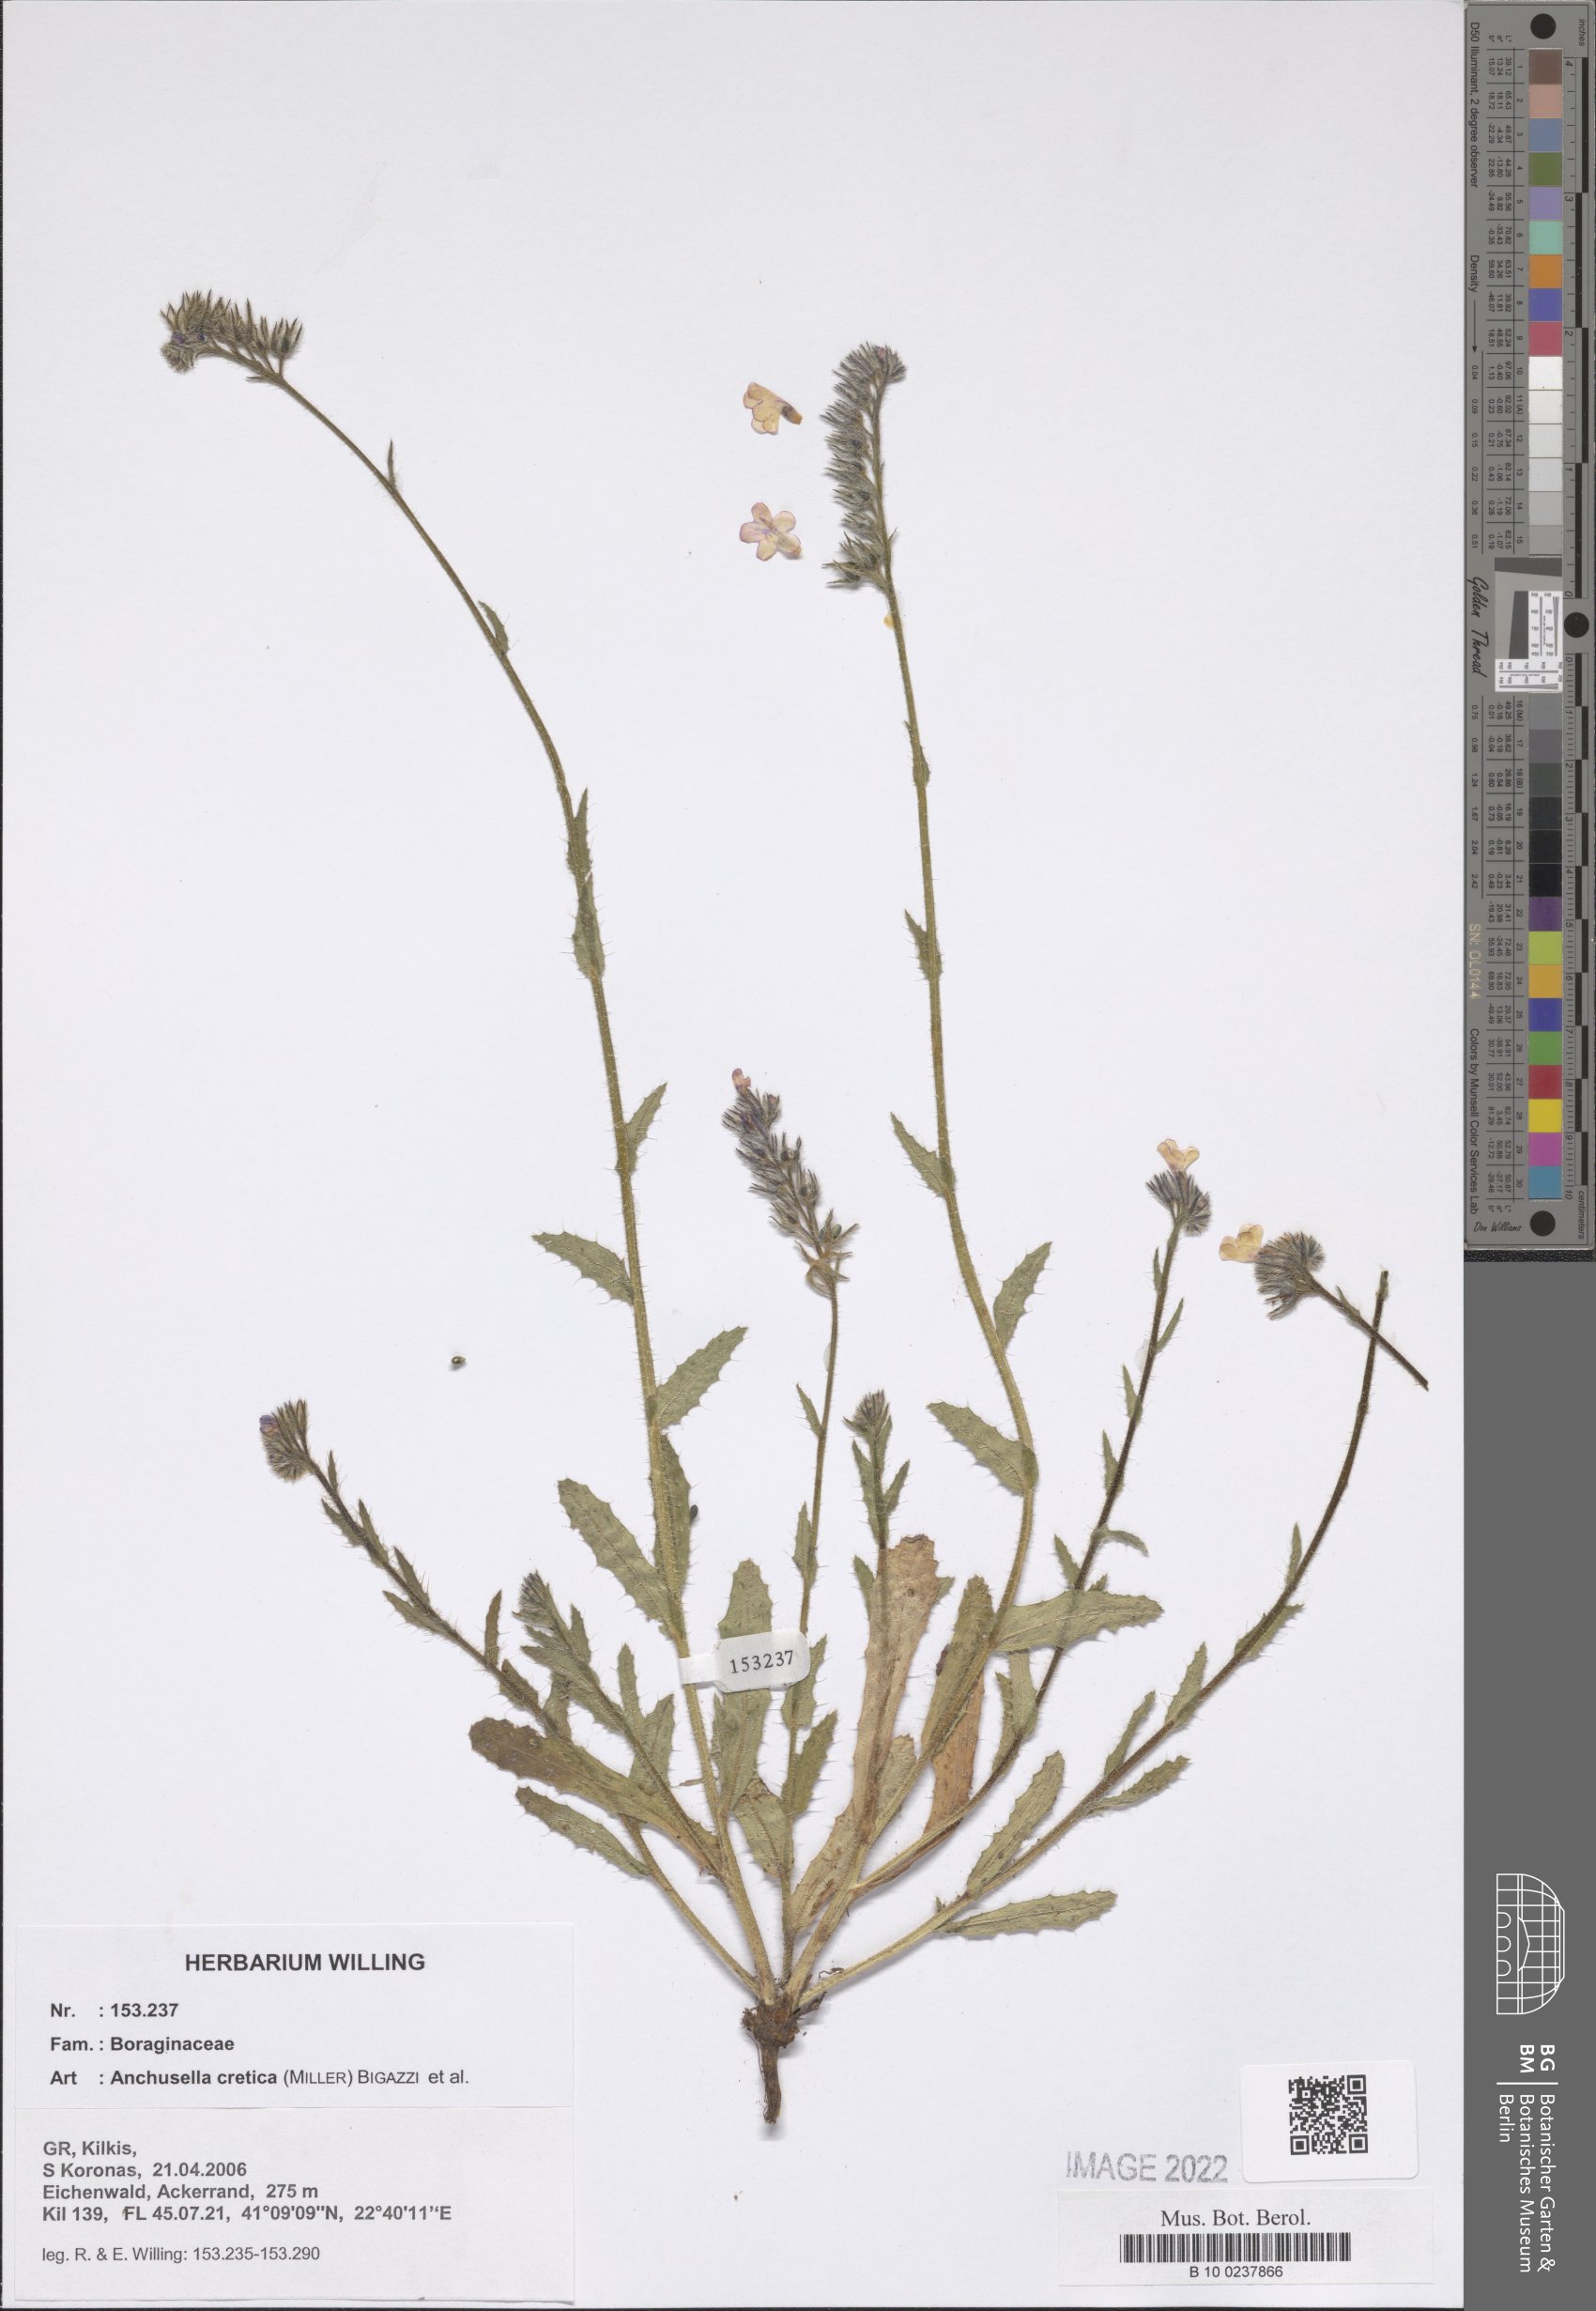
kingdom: Plantae
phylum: Tracheophyta
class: Magnoliopsida
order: Boraginales
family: Boraginaceae
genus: Lycopsis
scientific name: Lycopsis arvensis
